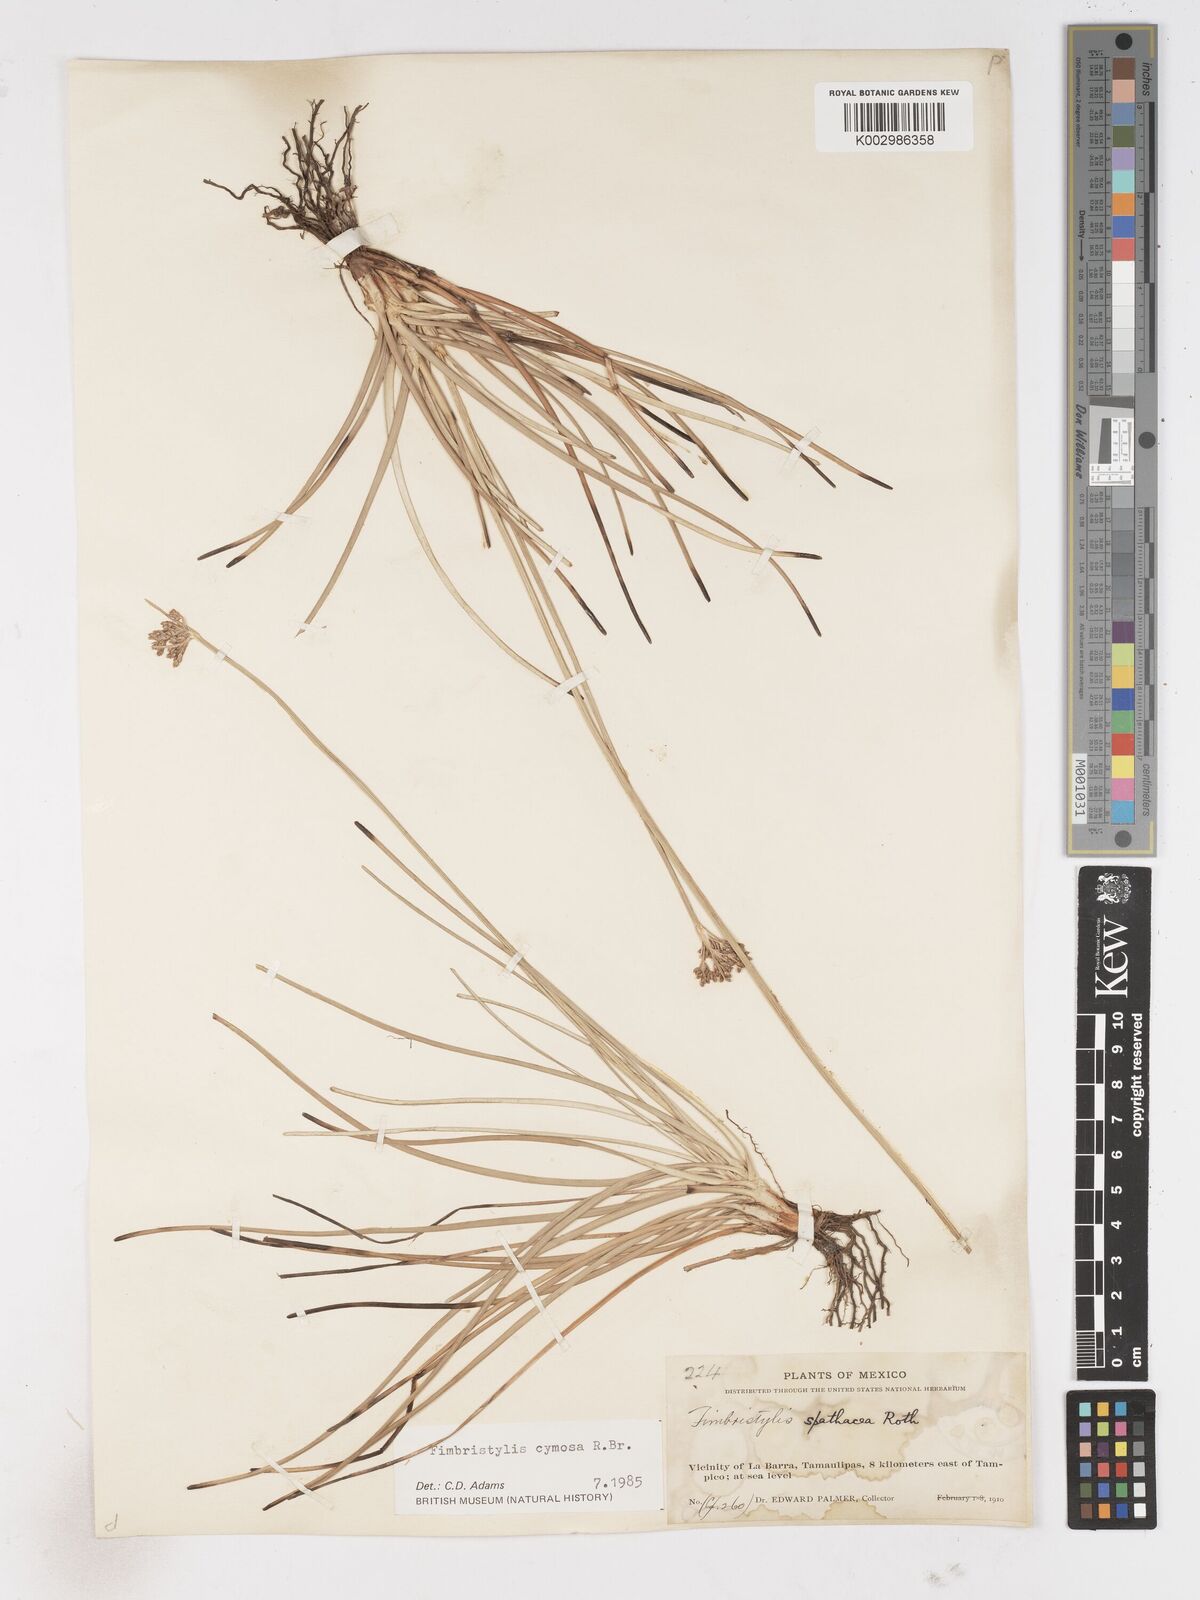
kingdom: Plantae
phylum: Tracheophyta
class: Liliopsida
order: Poales
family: Cyperaceae
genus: Fimbristylis
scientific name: Fimbristylis cymosa
